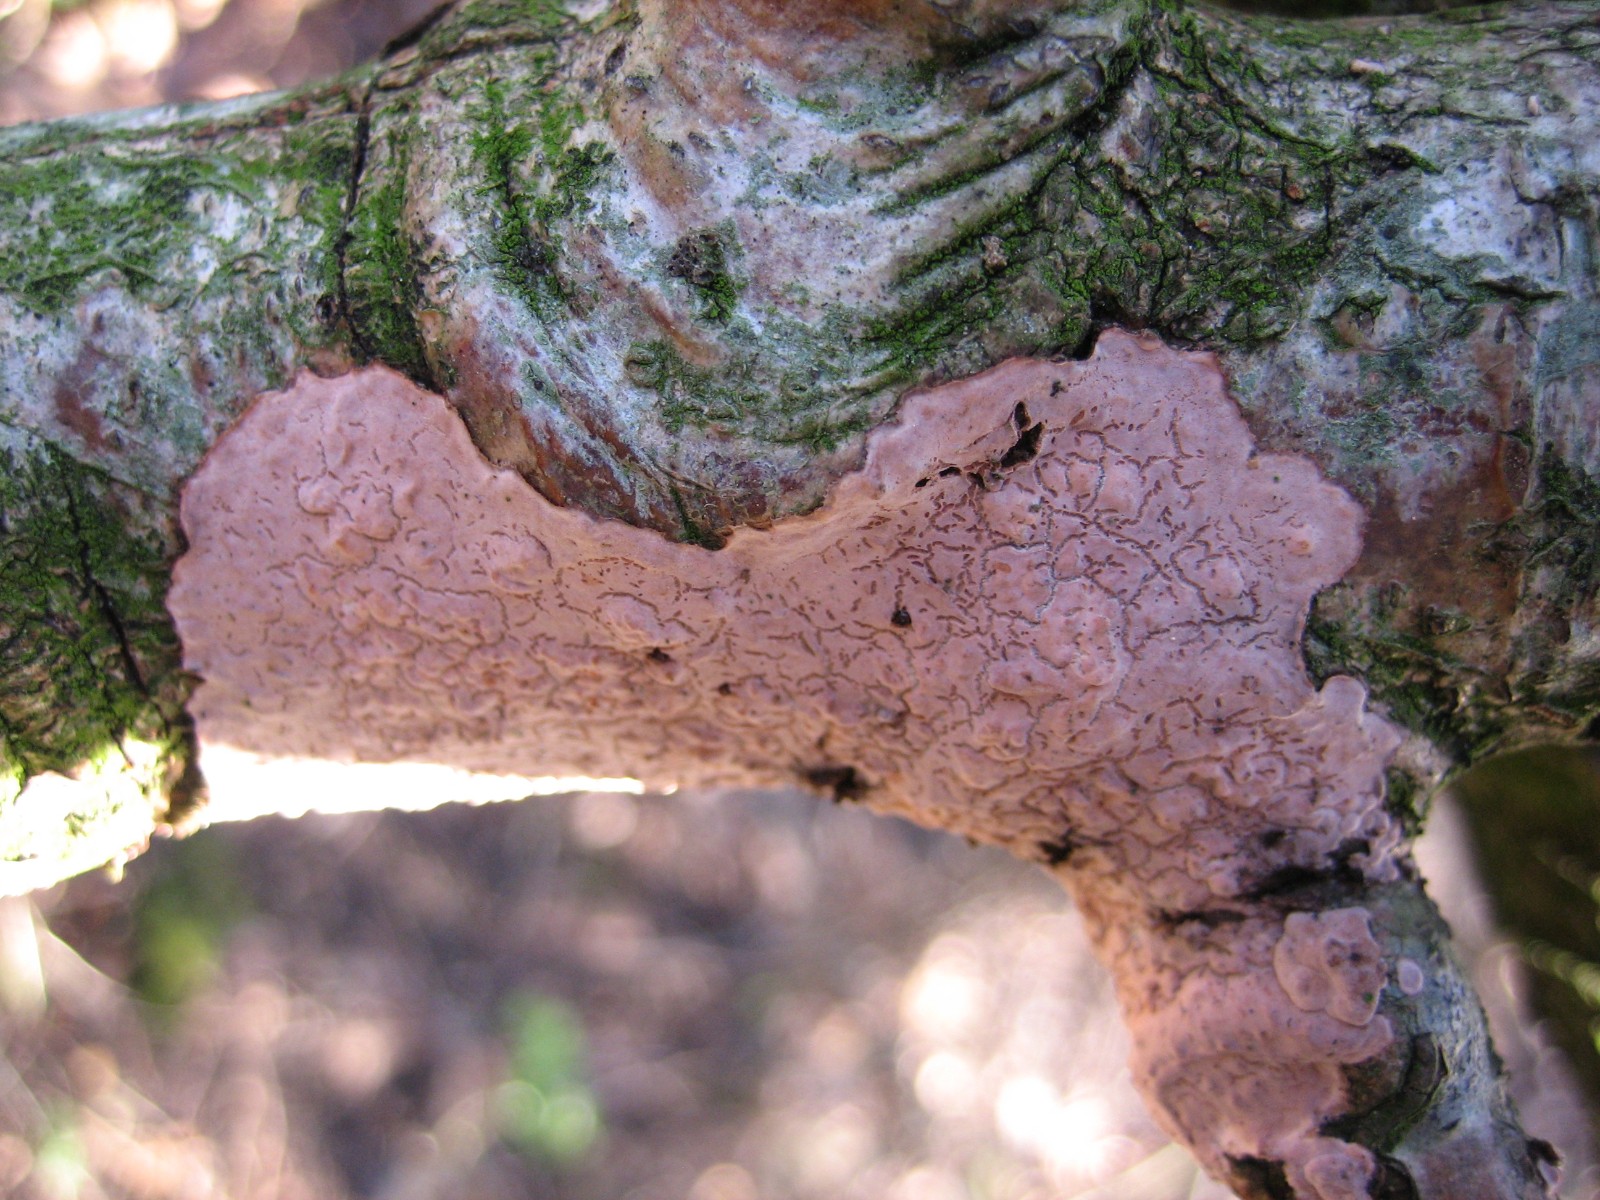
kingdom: Fungi
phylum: Basidiomycota
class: Agaricomycetes
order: Russulales
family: Peniophoraceae
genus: Peniophora
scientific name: Peniophora quercina
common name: ege-voksskind
